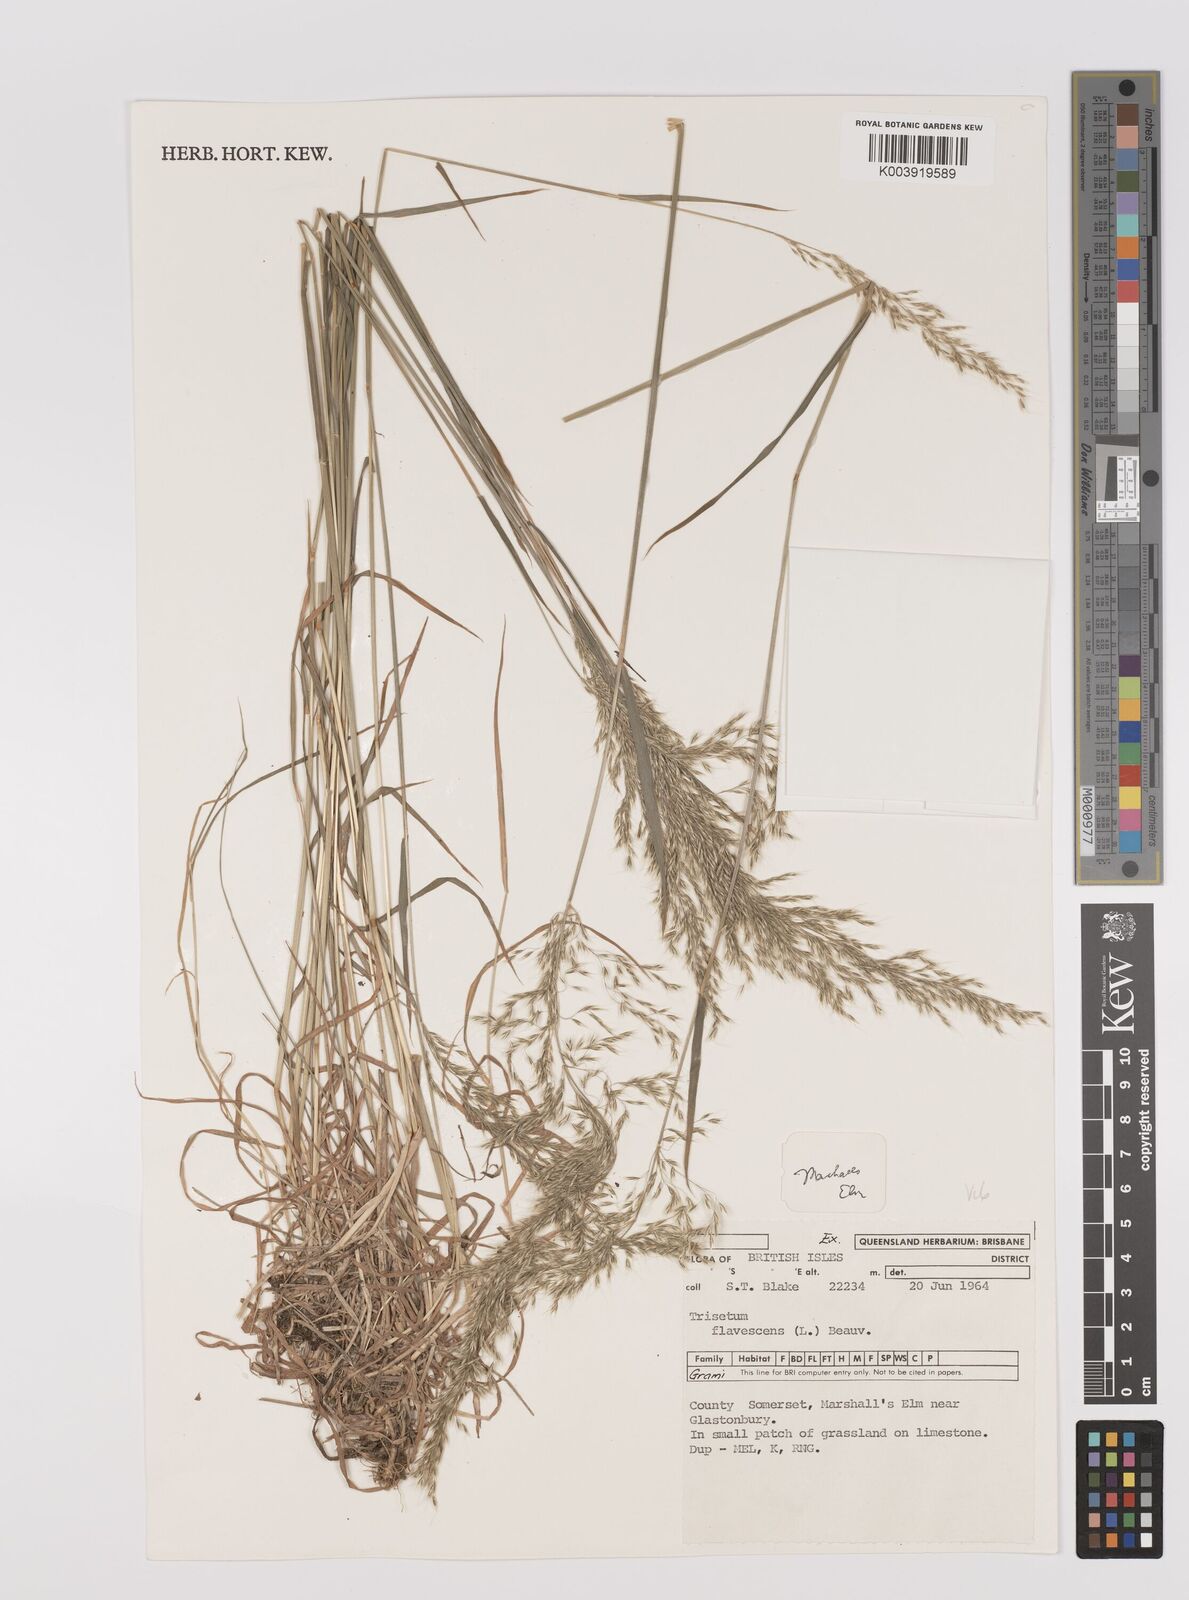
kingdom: Plantae
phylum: Tracheophyta
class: Liliopsida
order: Poales
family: Poaceae
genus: Trisetum
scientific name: Trisetum flavescens
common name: Yellow oat-grass
